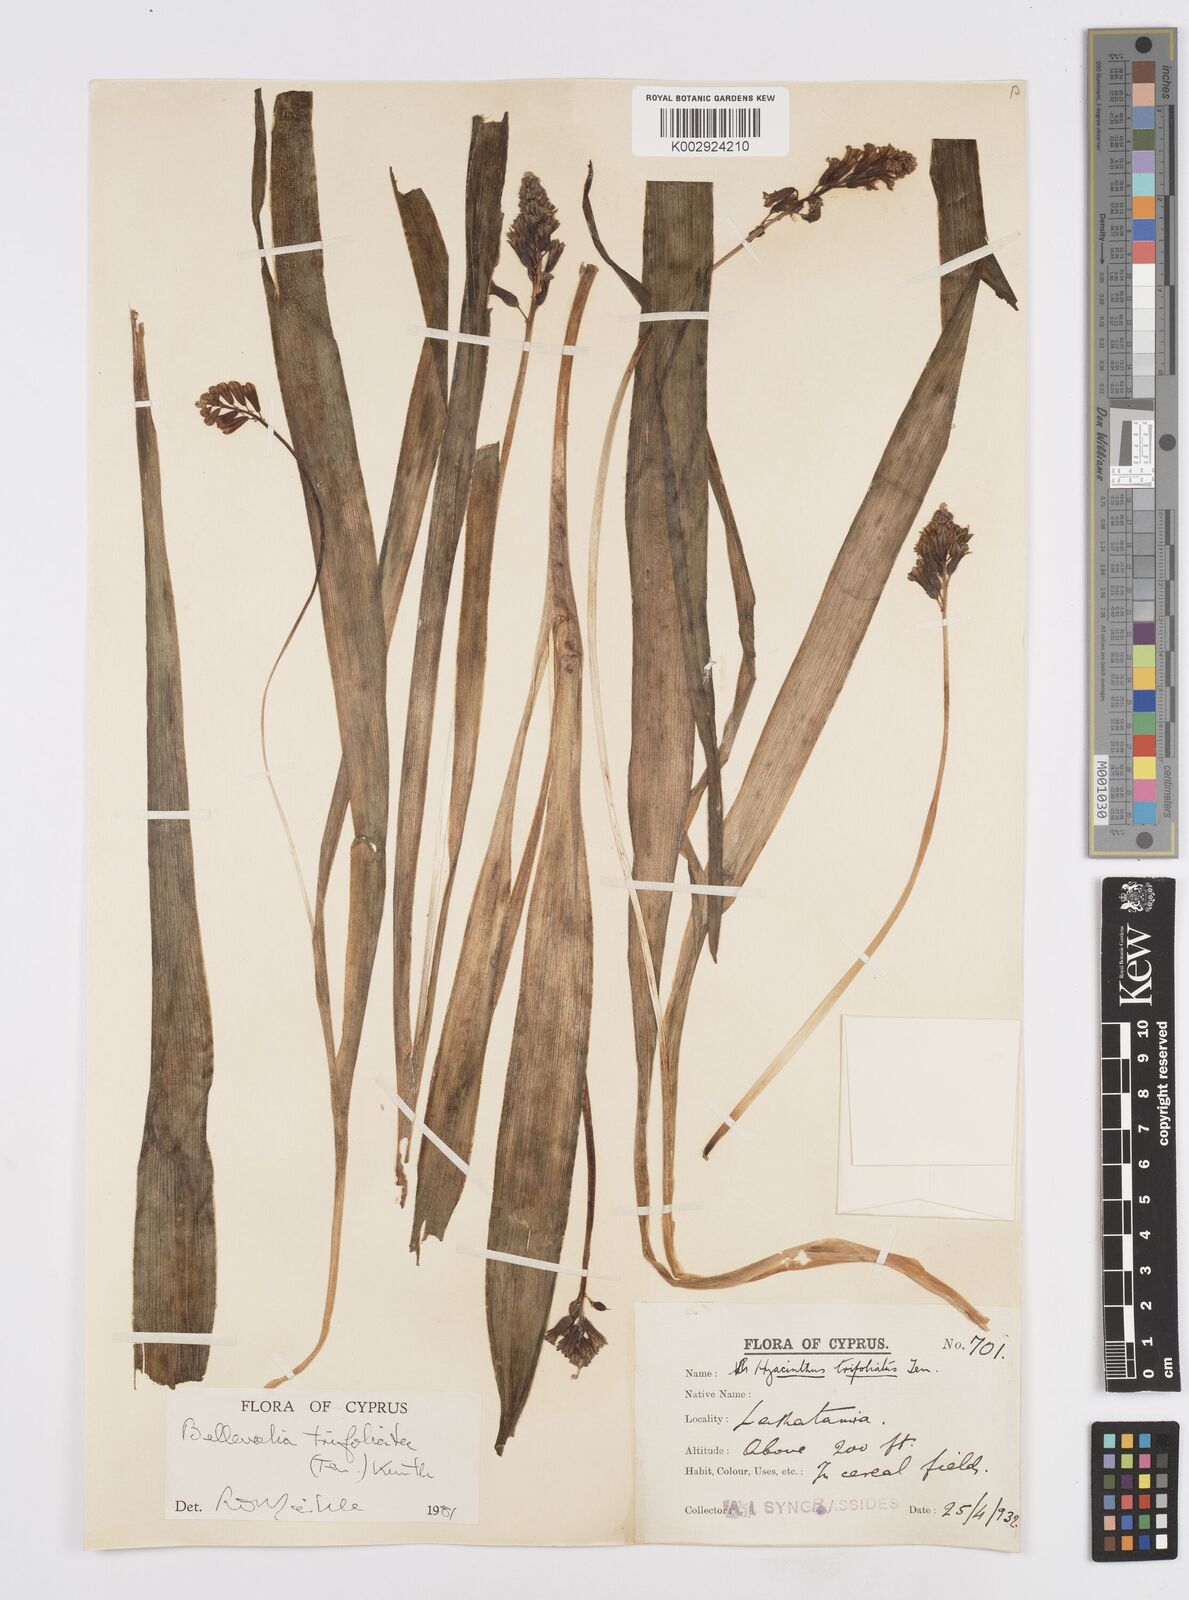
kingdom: Plantae
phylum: Tracheophyta
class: Liliopsida
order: Asparagales
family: Asparagaceae
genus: Bellevalia
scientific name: Bellevalia trifoliata
